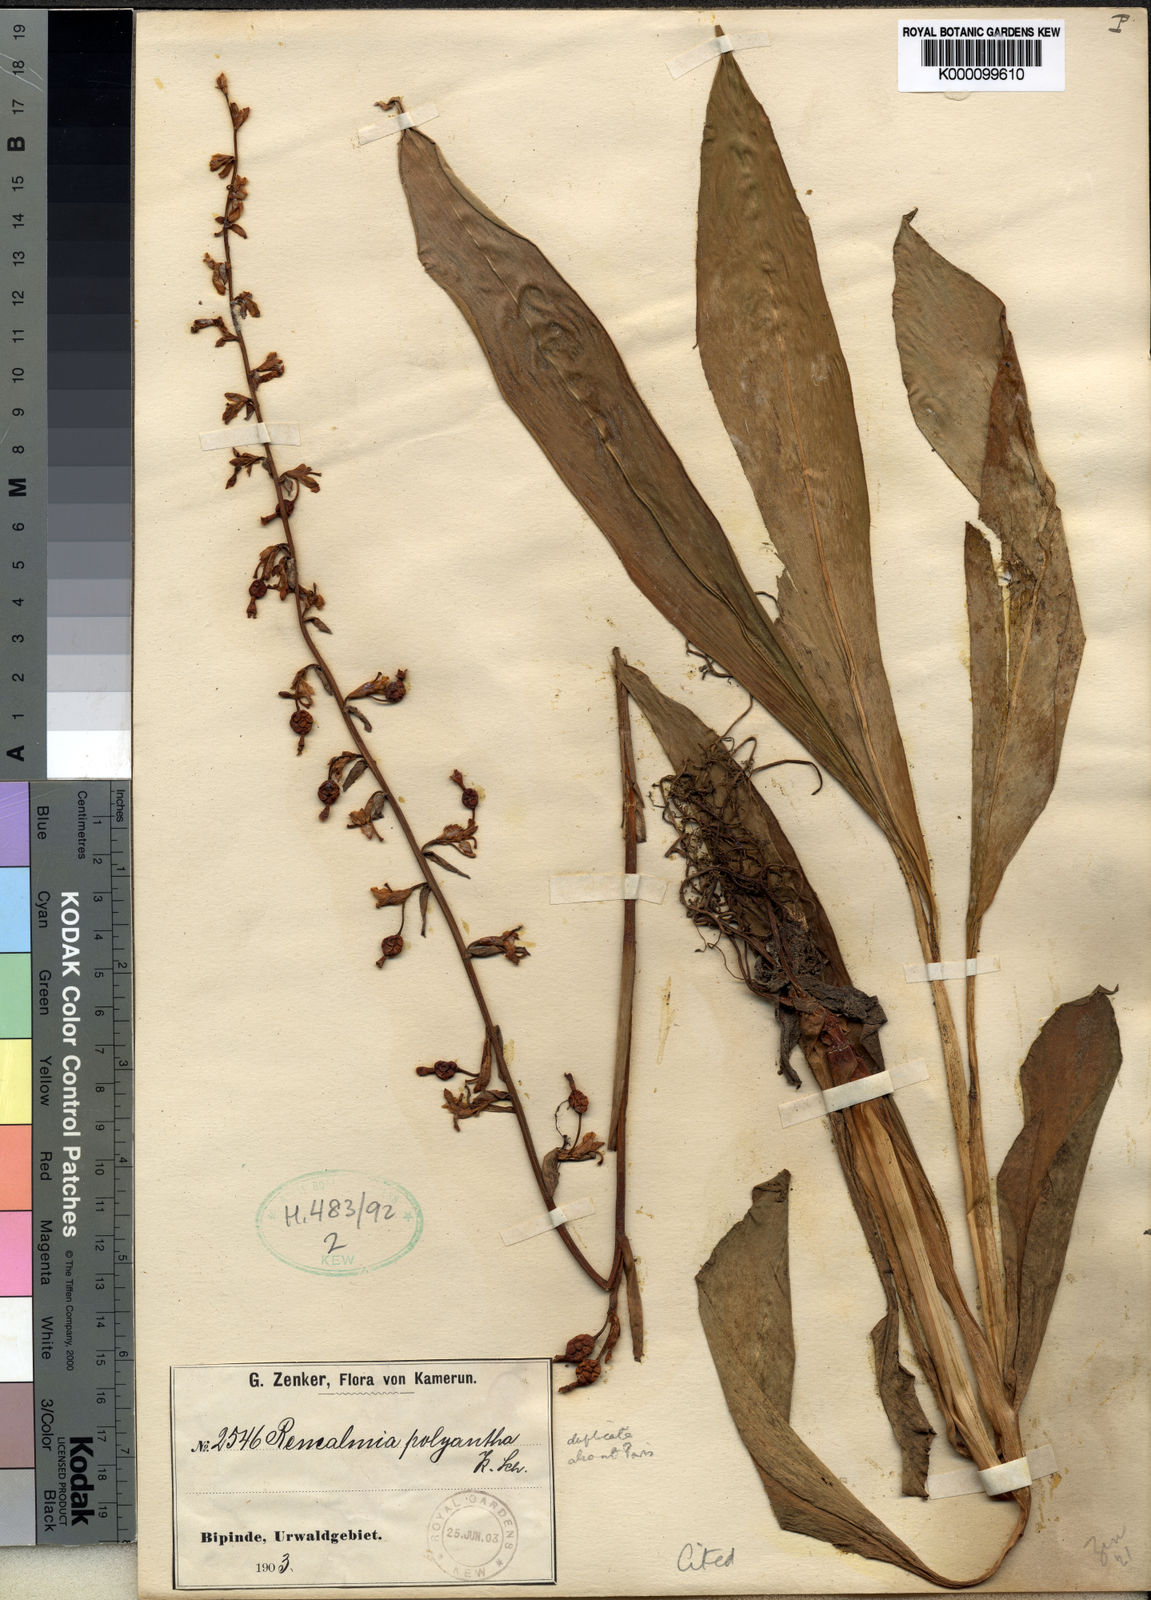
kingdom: Plantae
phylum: Tracheophyta
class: Liliopsida
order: Zingiberales
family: Zingiberaceae
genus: Renealmia
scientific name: Renealmia polyantha
